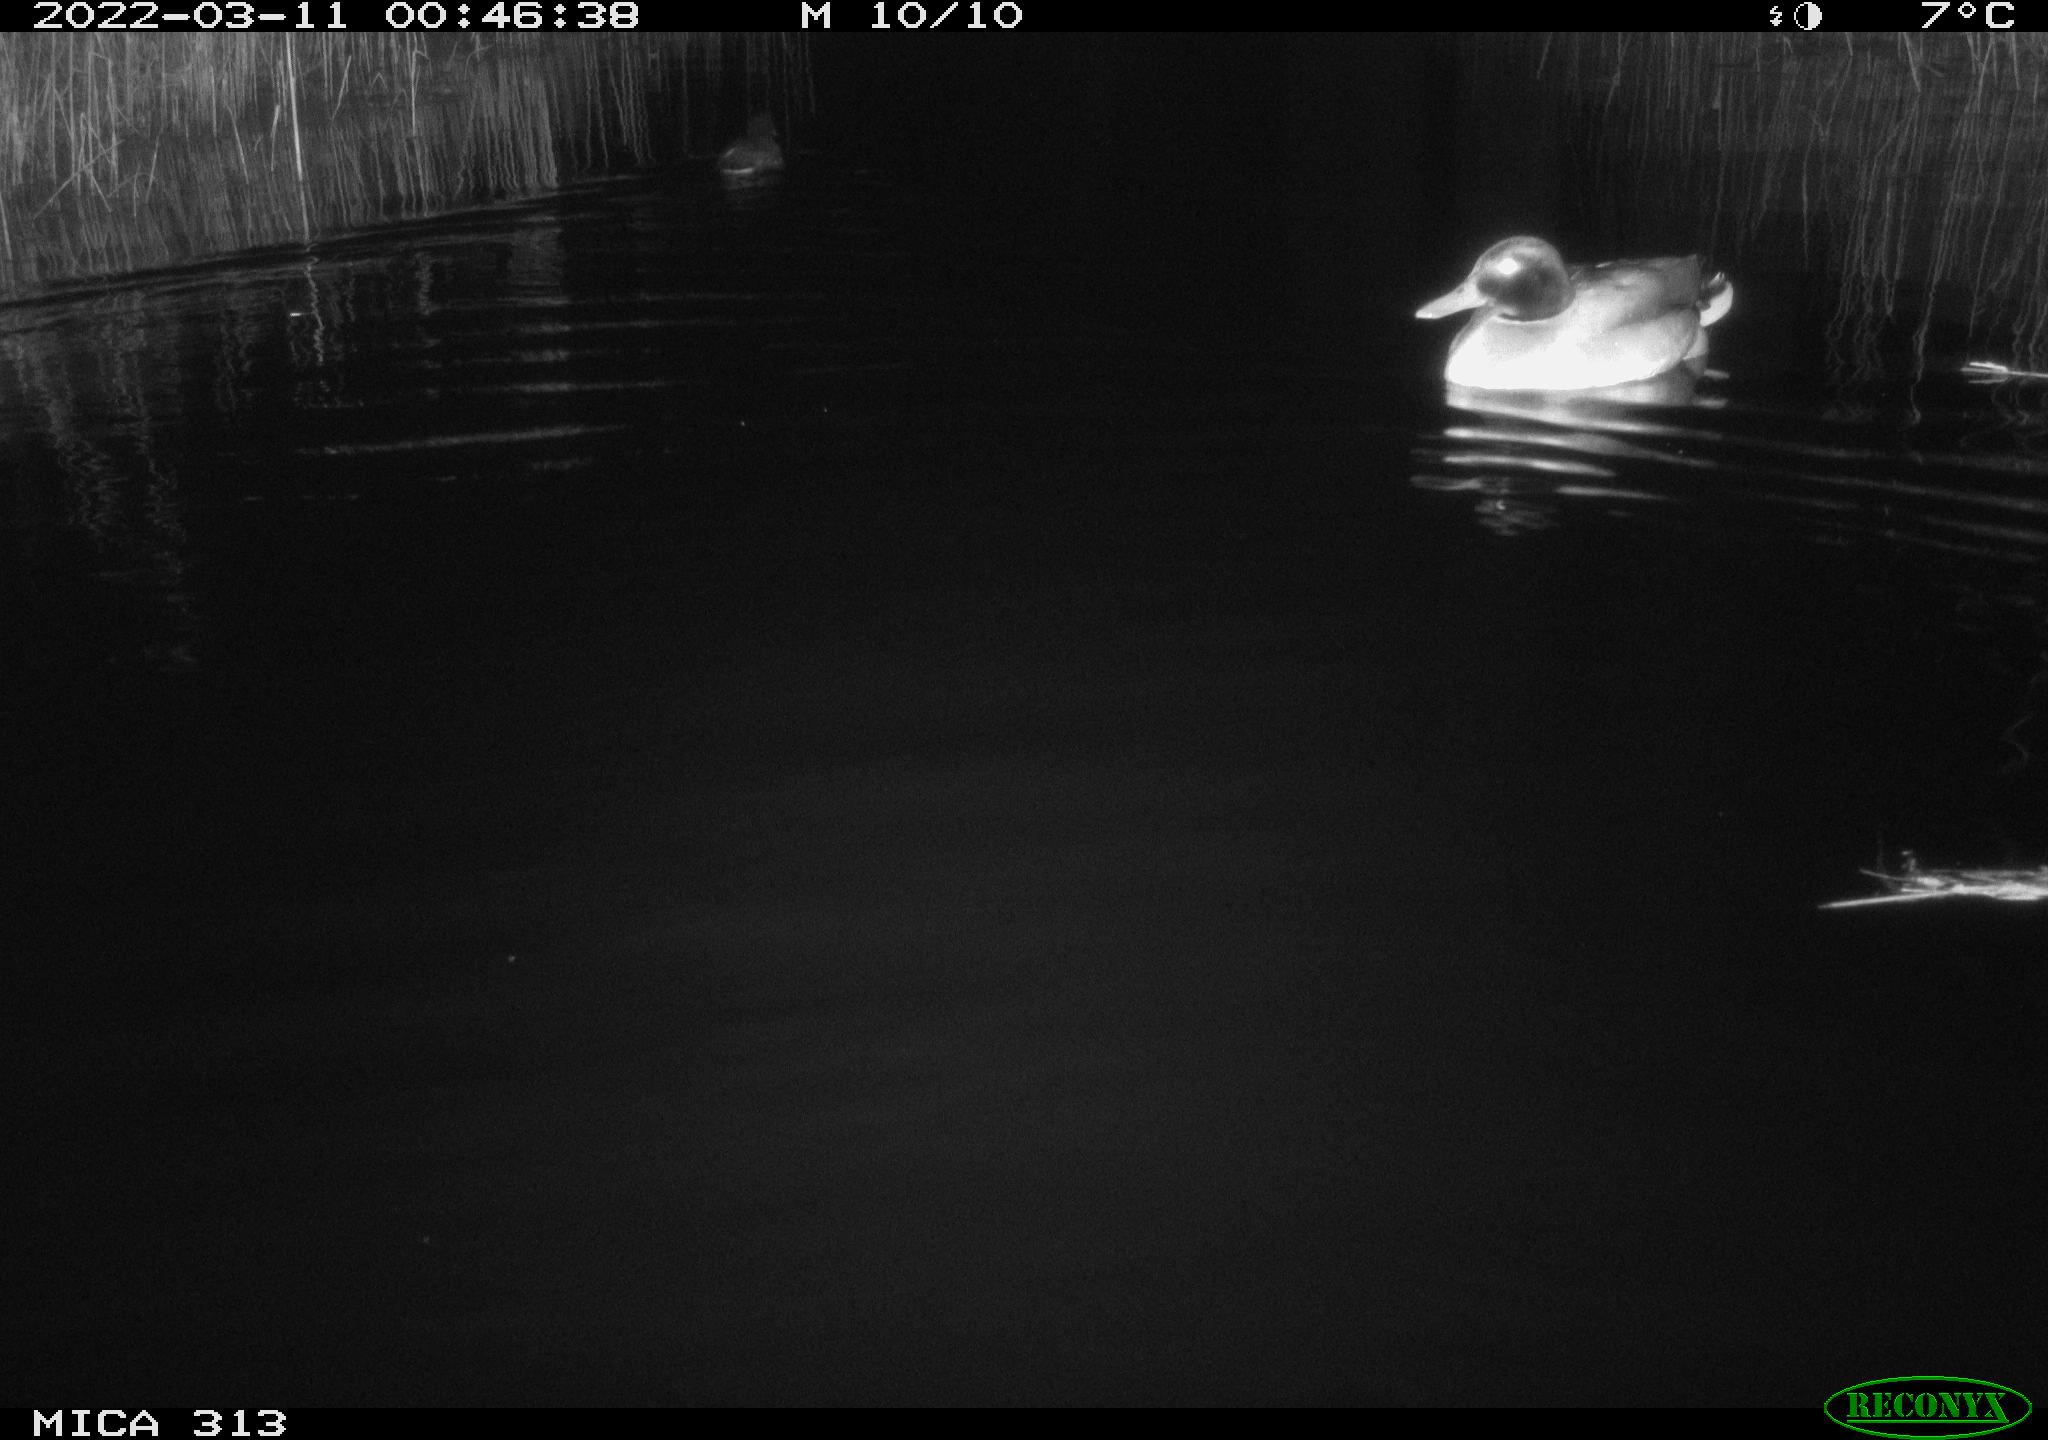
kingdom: Animalia
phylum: Chordata
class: Aves
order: Anseriformes
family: Anatidae
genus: Anas
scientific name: Anas platyrhynchos
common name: Mallard
